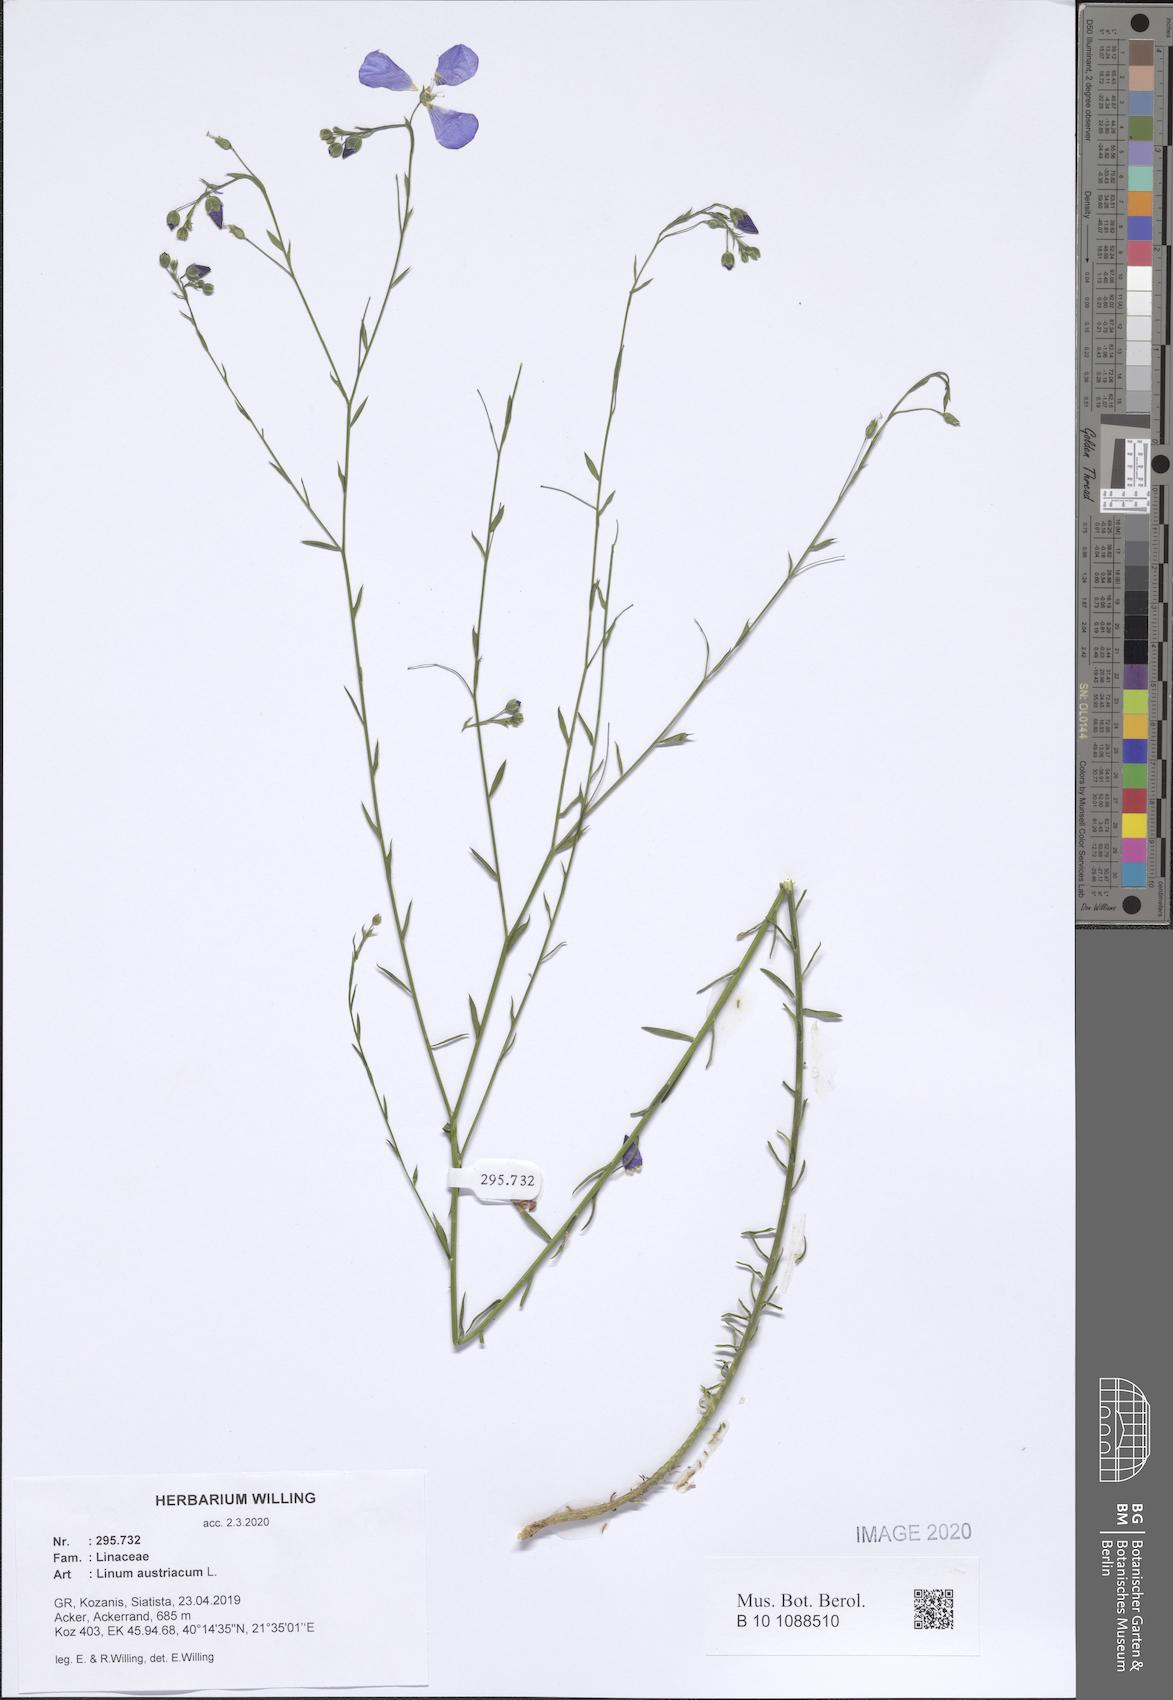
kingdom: Plantae
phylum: Tracheophyta
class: Magnoliopsida
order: Malpighiales
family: Linaceae
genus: Linum
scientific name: Linum austriacum
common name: Austrian flax
